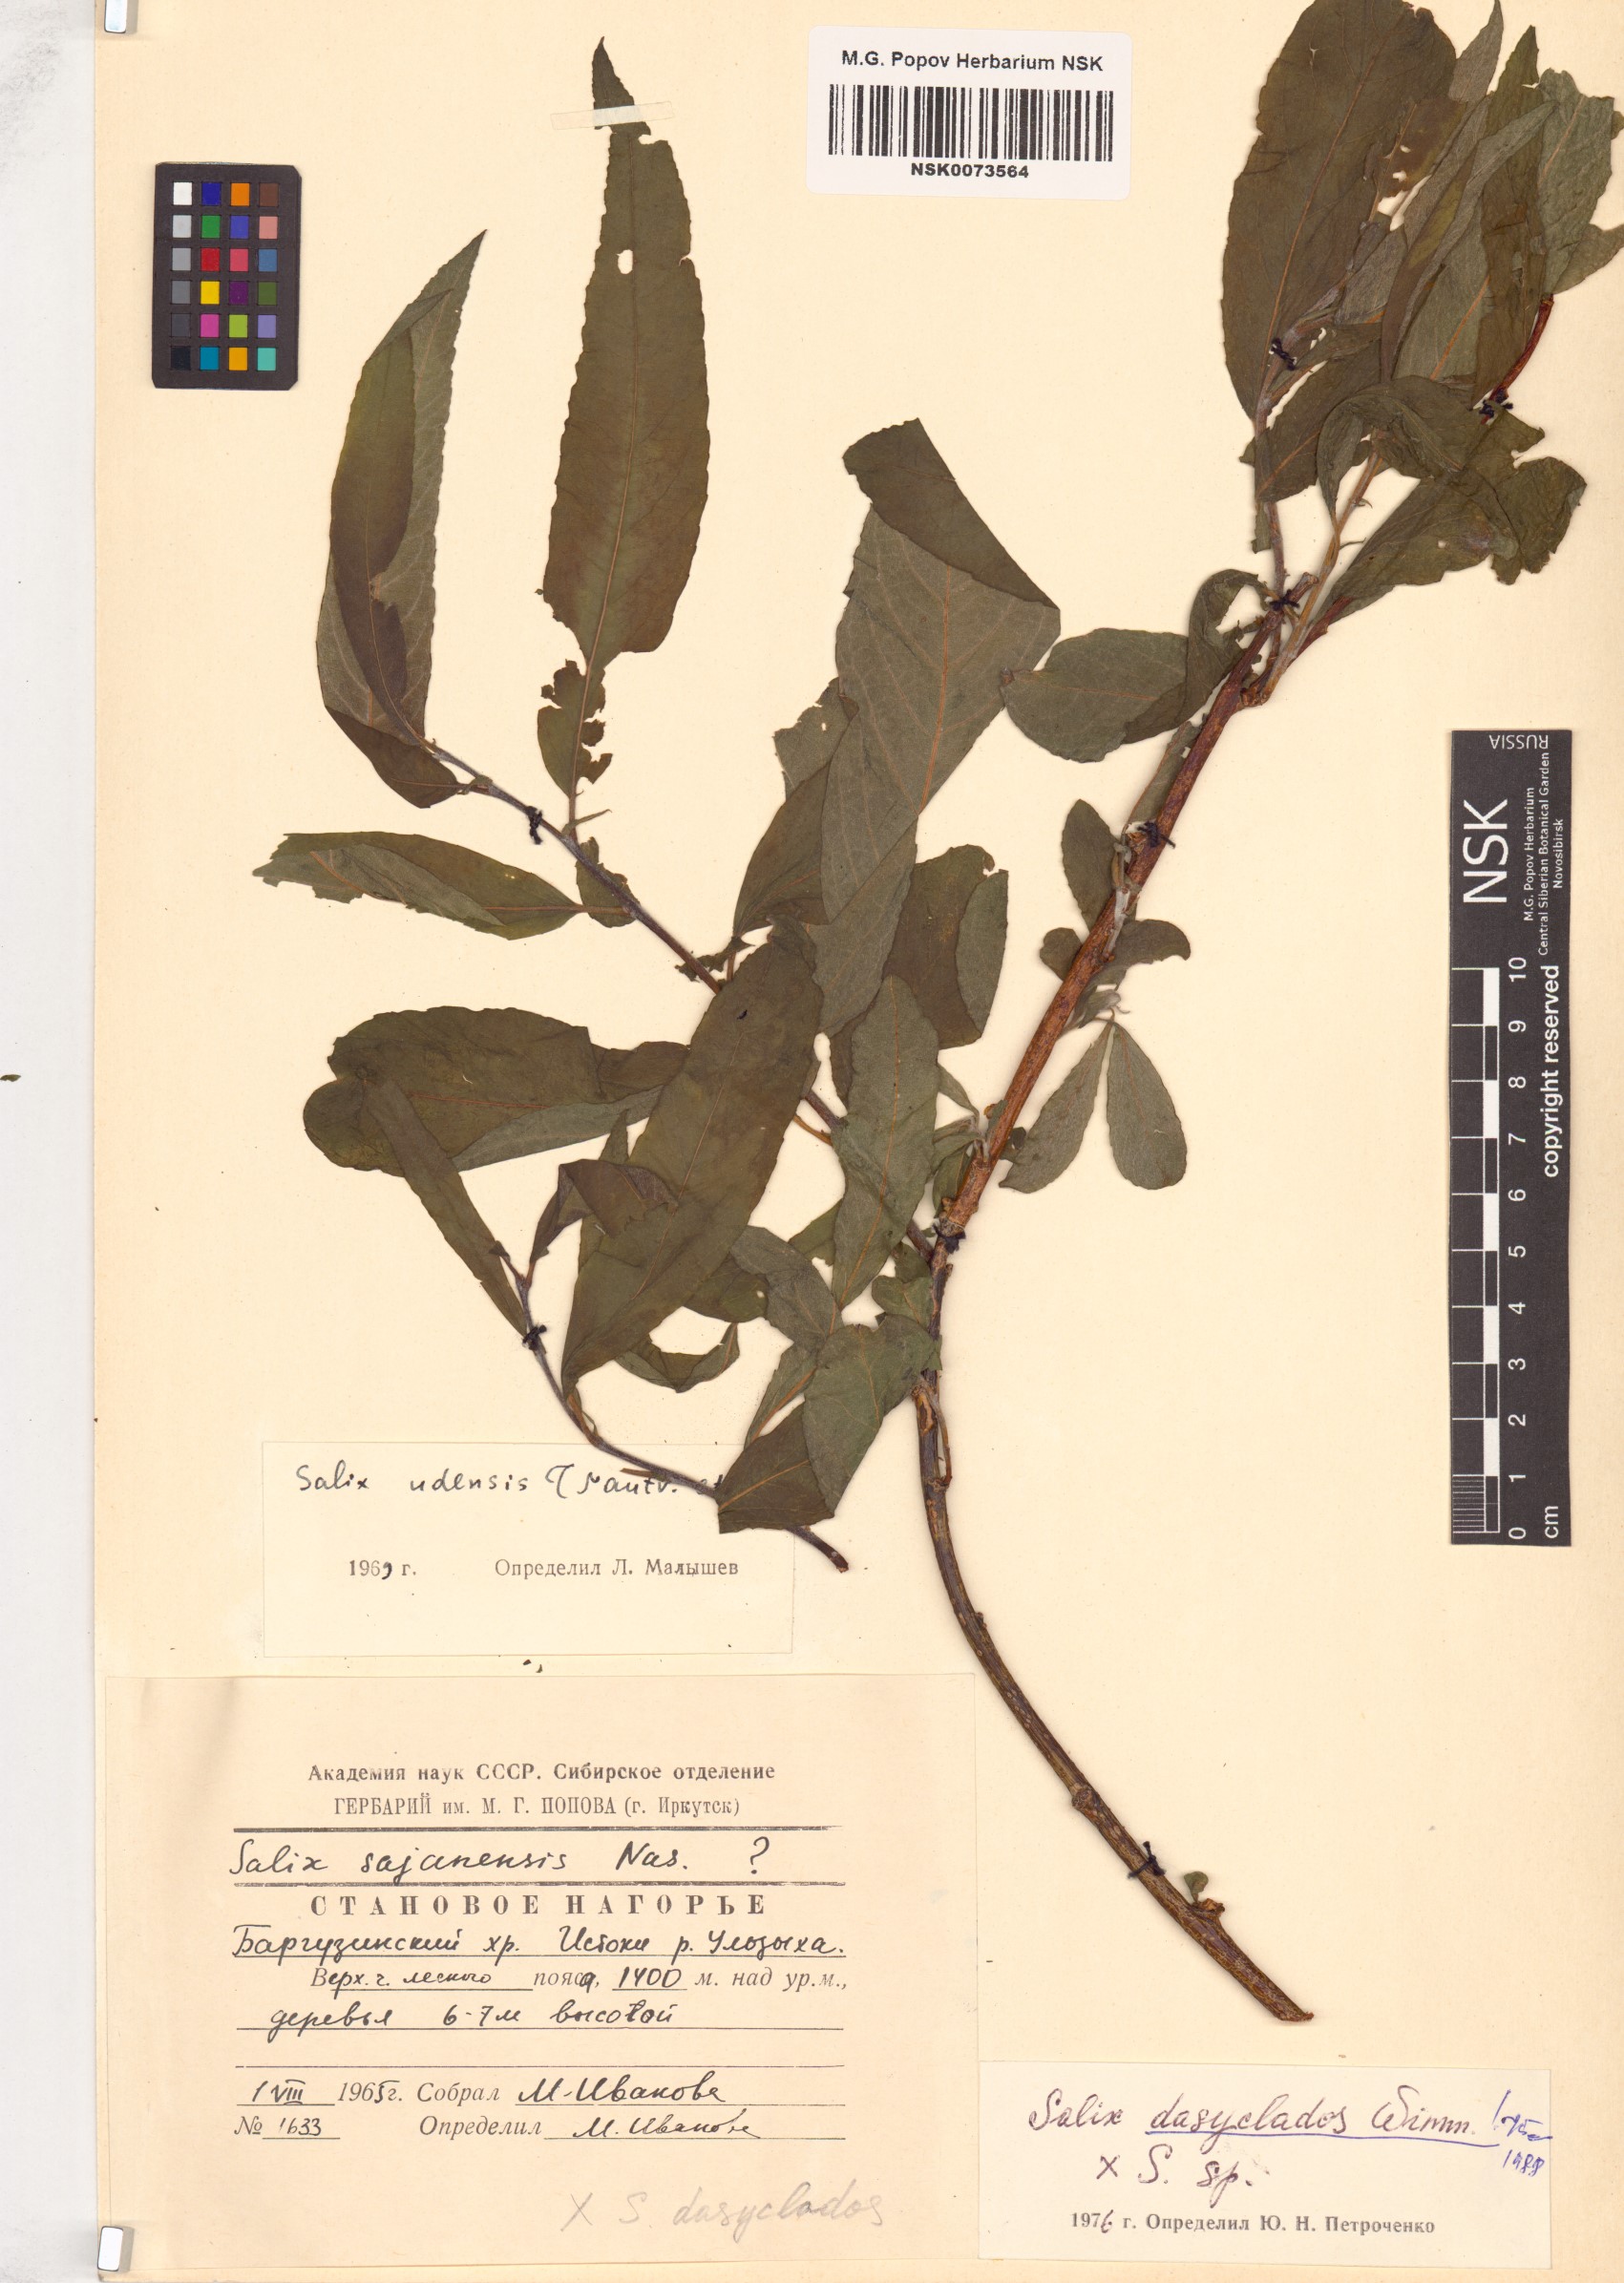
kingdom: Plantae
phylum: Tracheophyta
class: Magnoliopsida
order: Malpighiales
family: Salicaceae
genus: Salix
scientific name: Salix gmelinii
